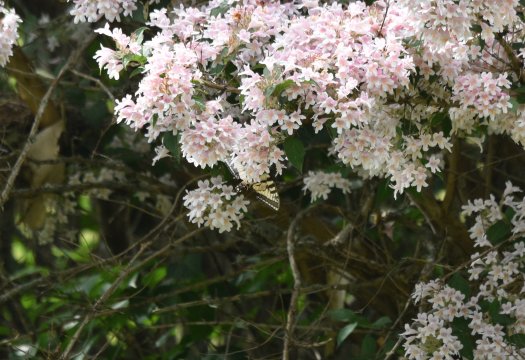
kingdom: Animalia
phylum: Arthropoda
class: Insecta
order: Lepidoptera
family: Papilionidae
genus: Pterourus
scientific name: Pterourus canadensis
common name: Canadian Tiger Swallowtail
